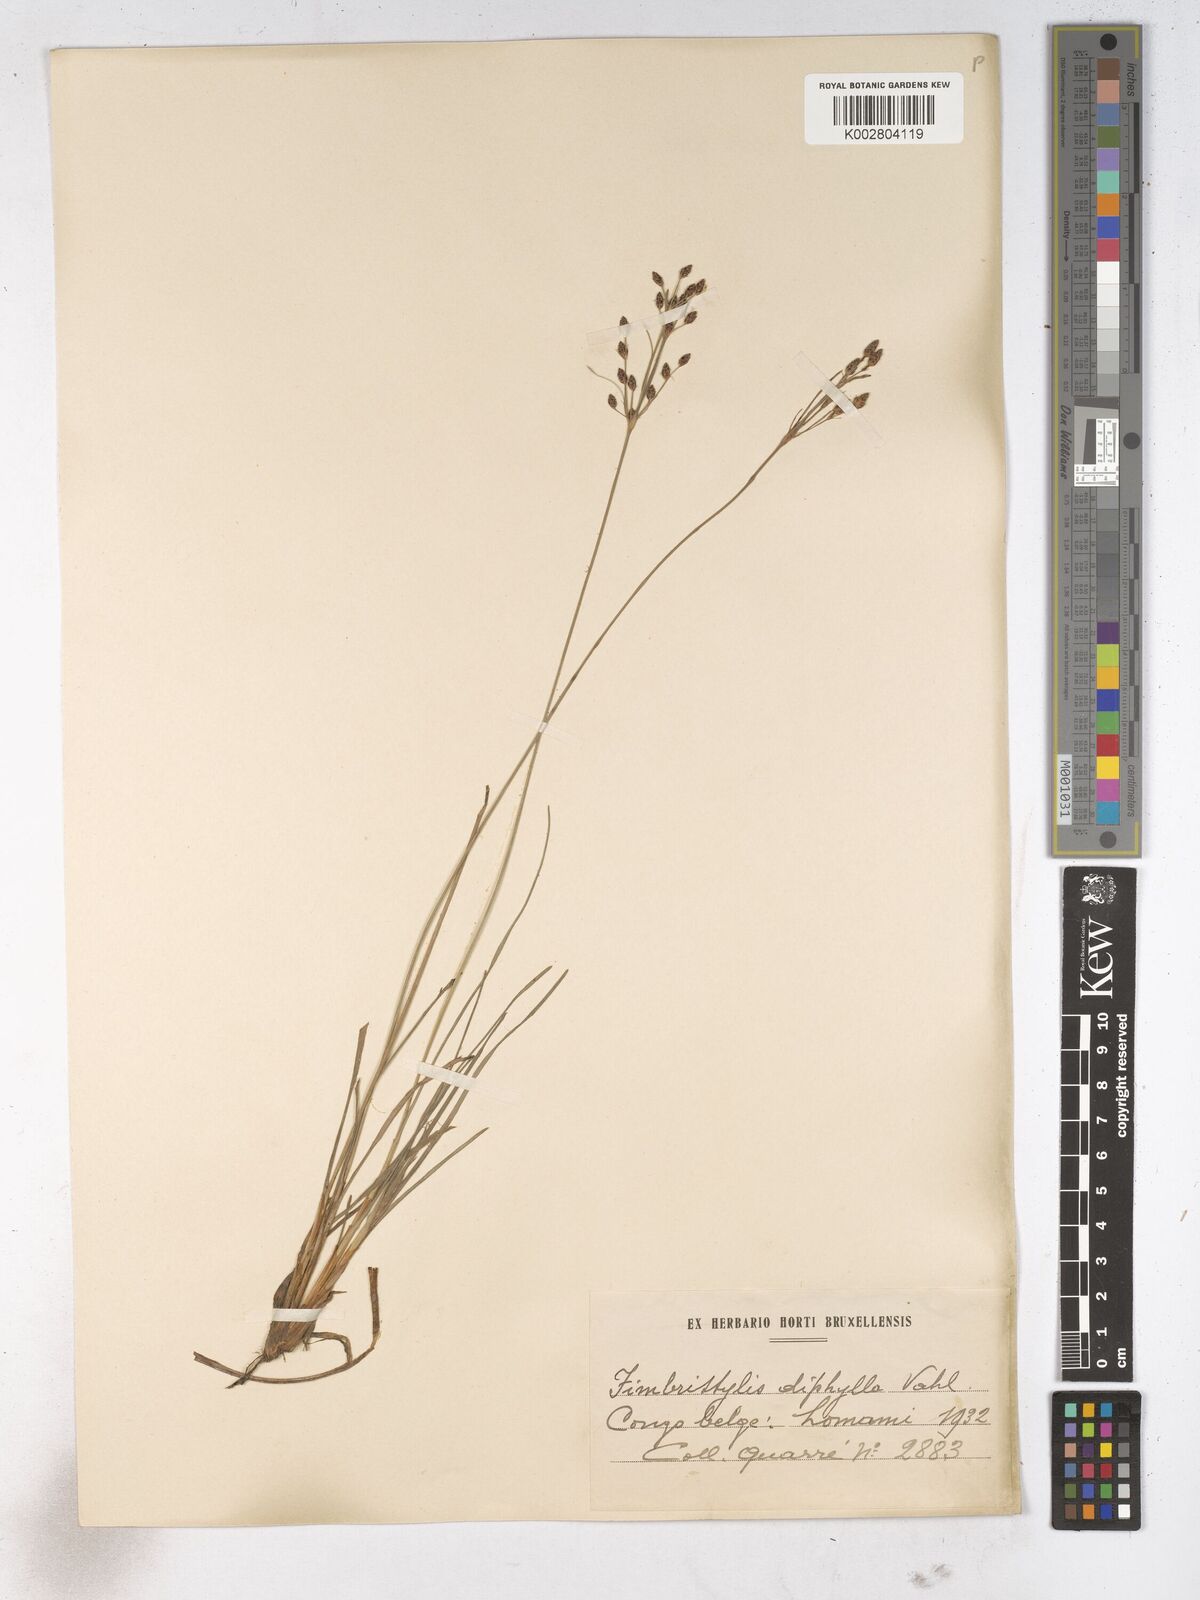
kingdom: Plantae
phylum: Tracheophyta
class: Liliopsida
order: Poales
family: Cyperaceae
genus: Fimbristylis
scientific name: Fimbristylis dichotoma
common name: Forked fimbry
